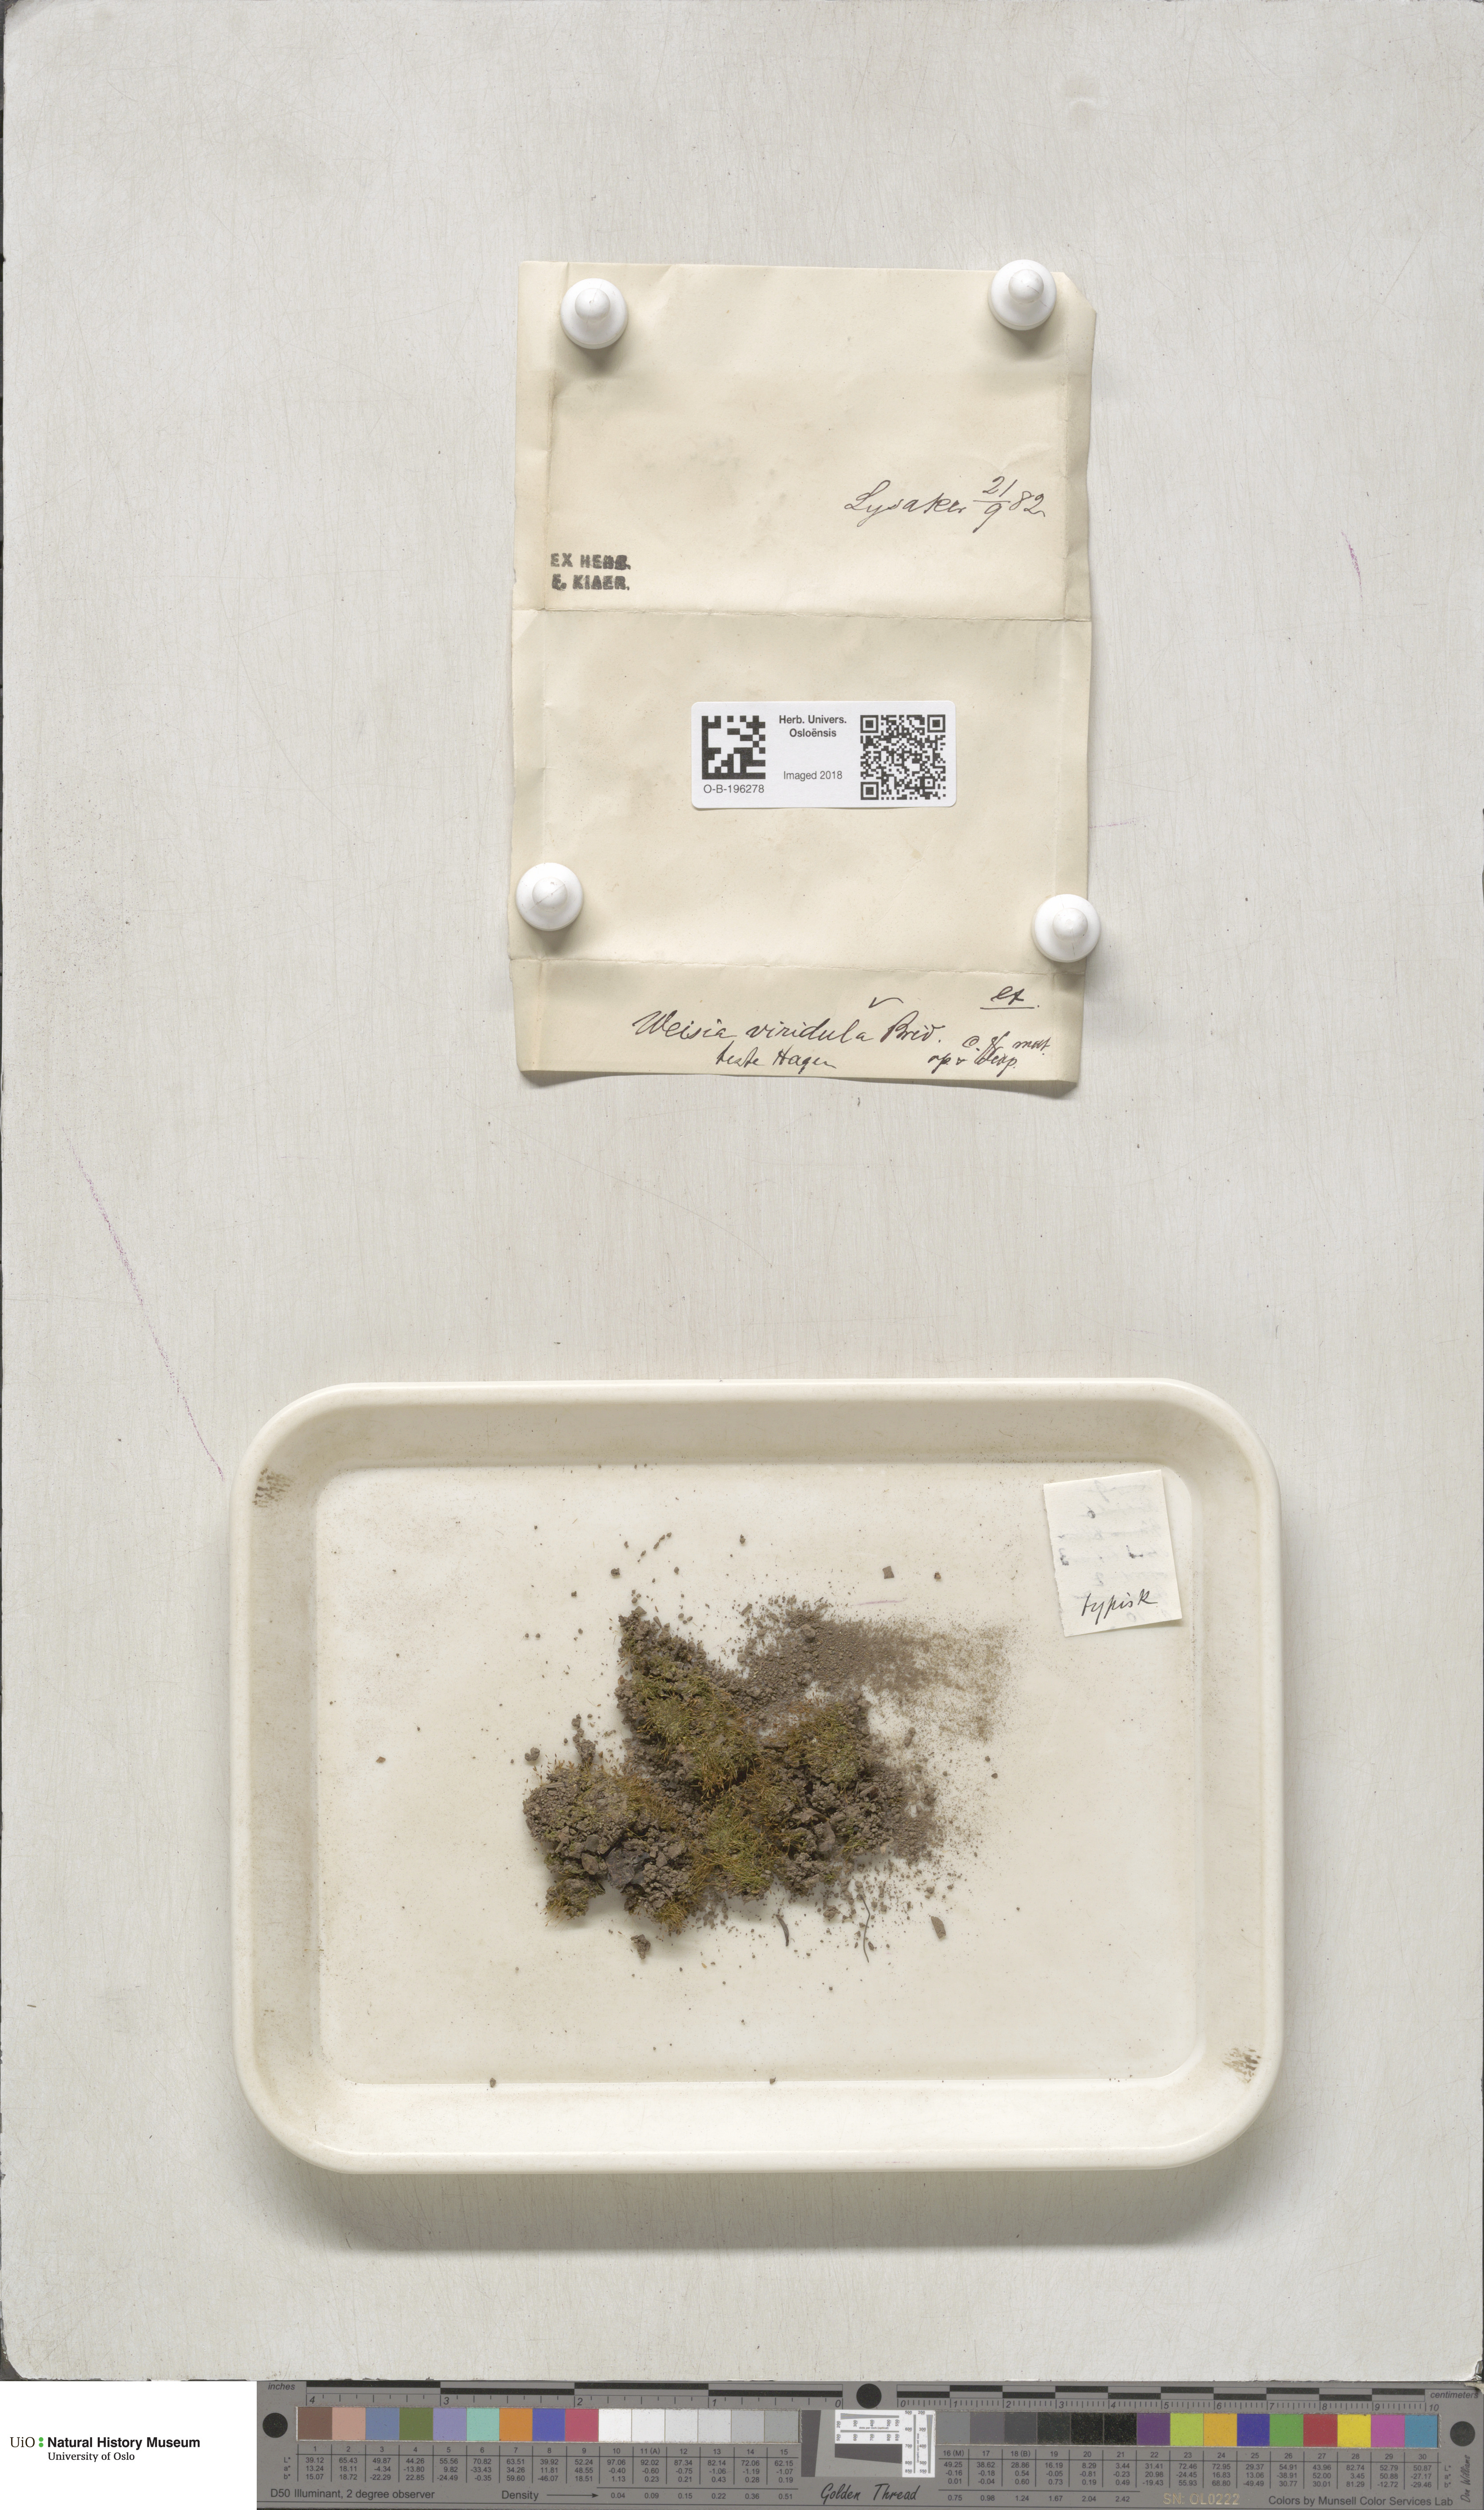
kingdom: Plantae
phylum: Bryophyta
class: Bryopsida
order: Pottiales
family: Pottiaceae
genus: Weissia
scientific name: Weissia controversa
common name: Green-tufted stubble moss
